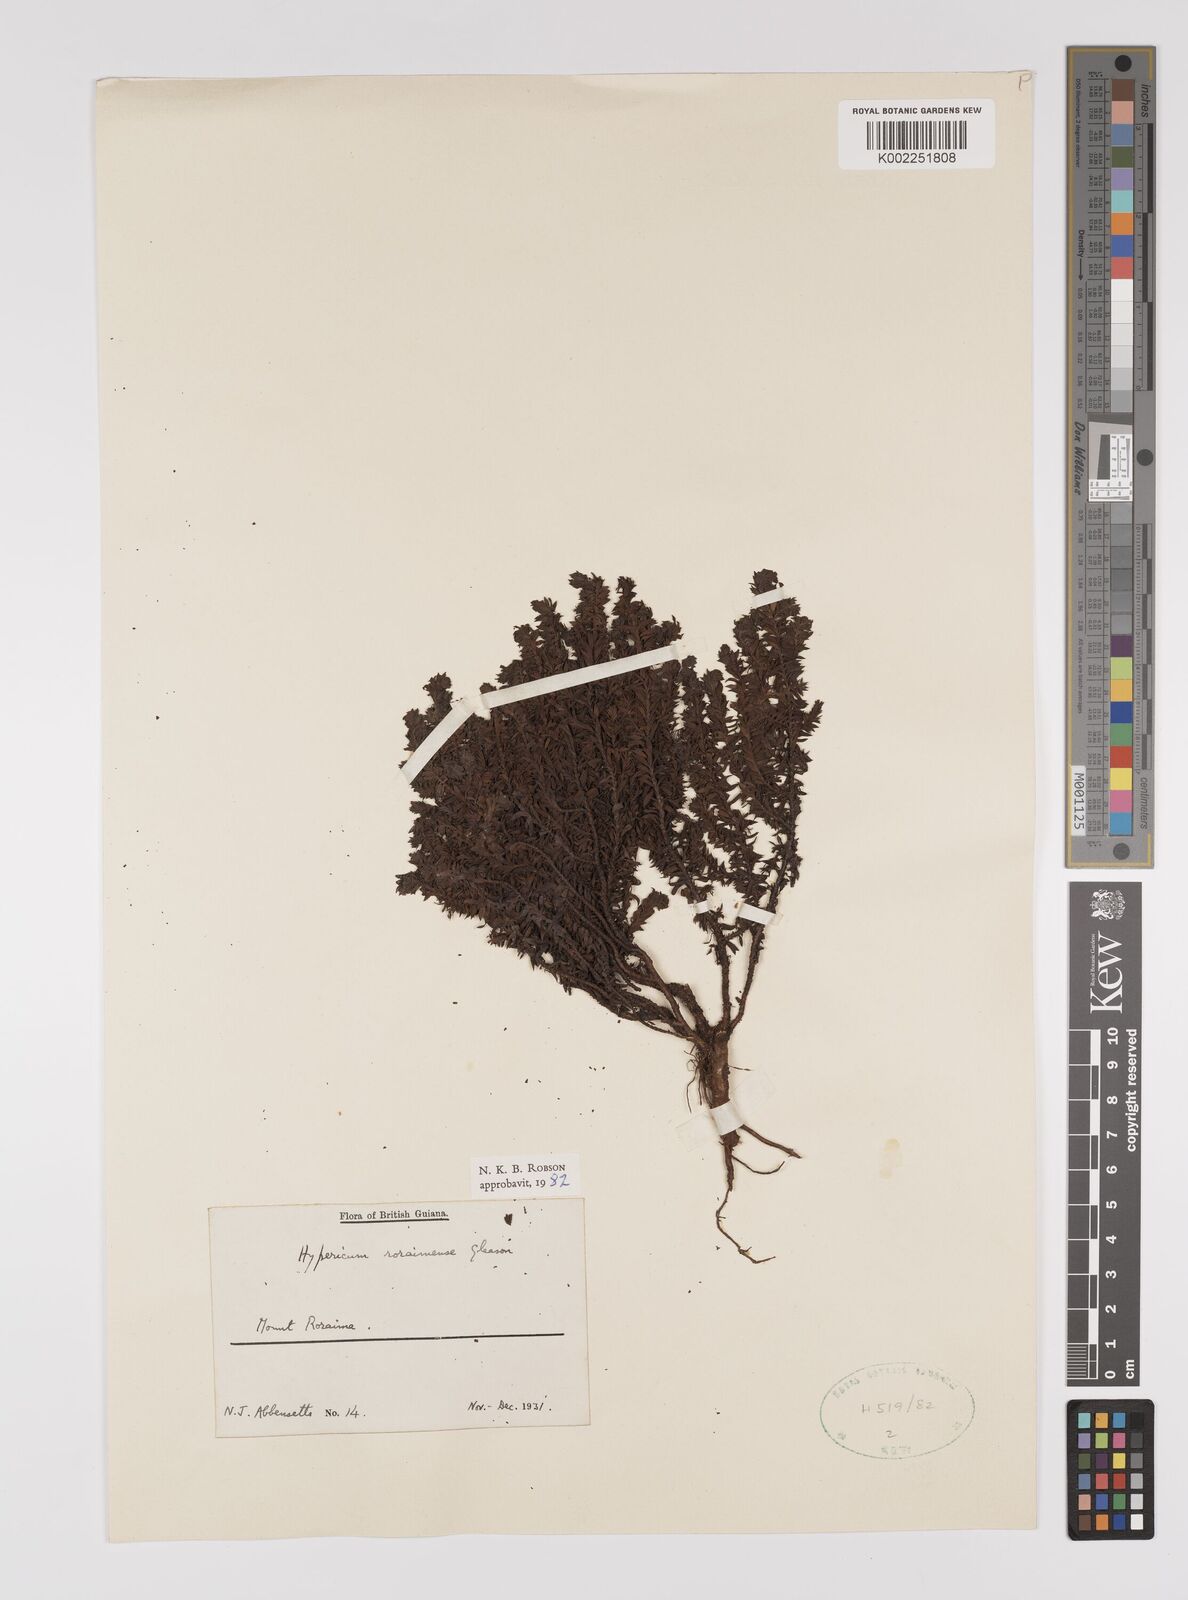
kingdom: Plantae
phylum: Tracheophyta
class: Magnoliopsida
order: Malpighiales
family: Hypericaceae
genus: Hypericum
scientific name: Hypericum roraimense
